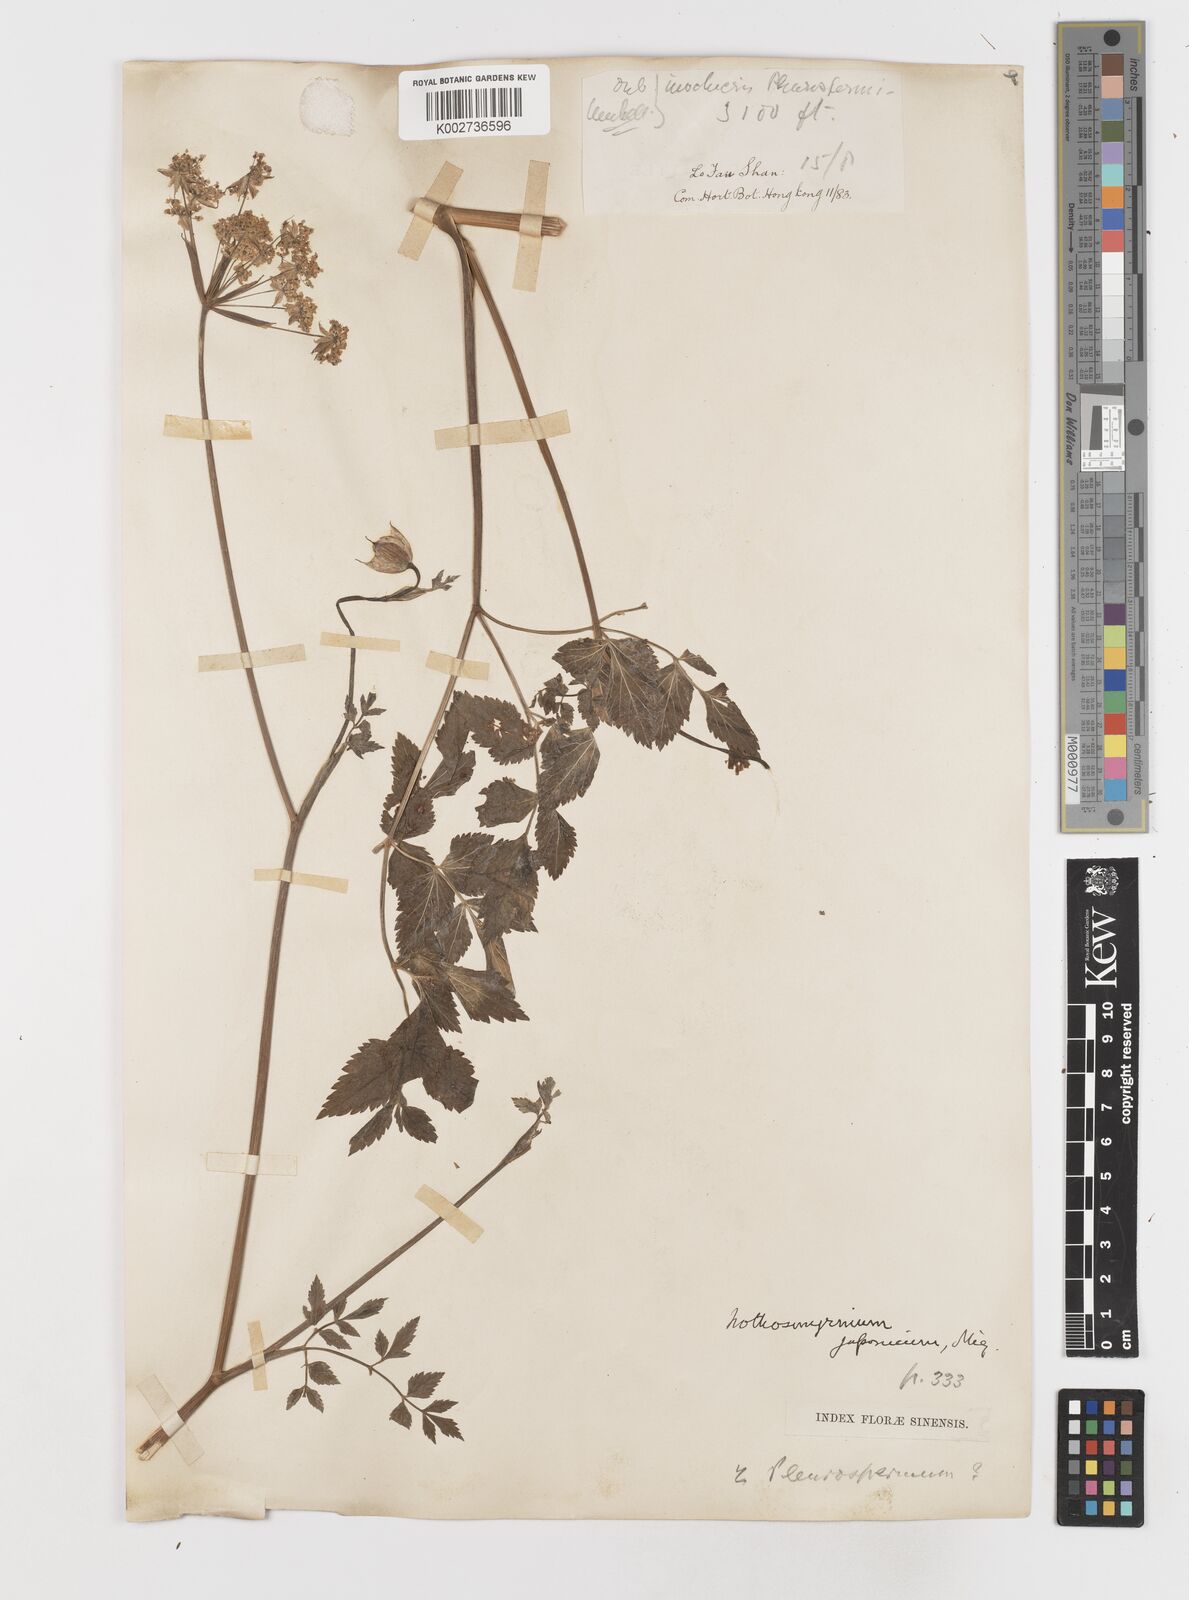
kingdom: Plantae
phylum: Tracheophyta
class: Magnoliopsida
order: Apiales
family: Apiaceae
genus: Nothosmyrnium
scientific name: Nothosmyrnium japonicum
